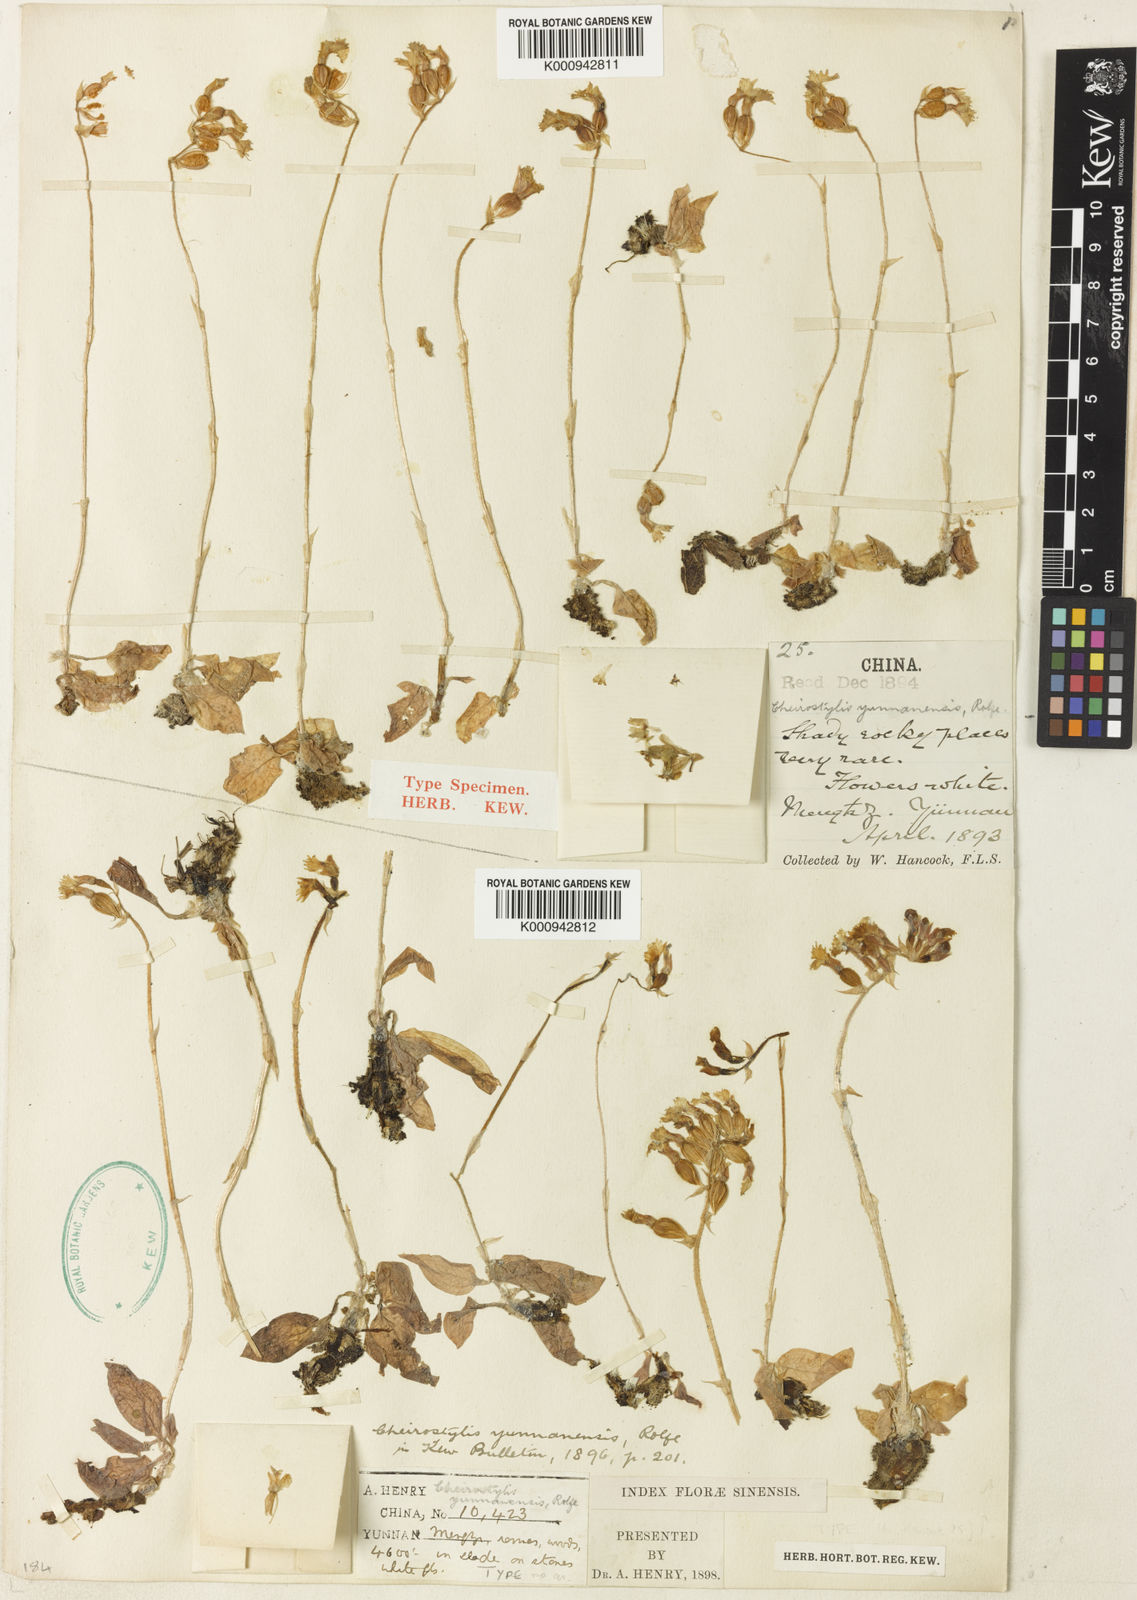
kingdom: Plantae
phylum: Tracheophyta
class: Liliopsida
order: Asparagales
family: Orchidaceae
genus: Cheirostylis
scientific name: Cheirostylis yunnanensis
